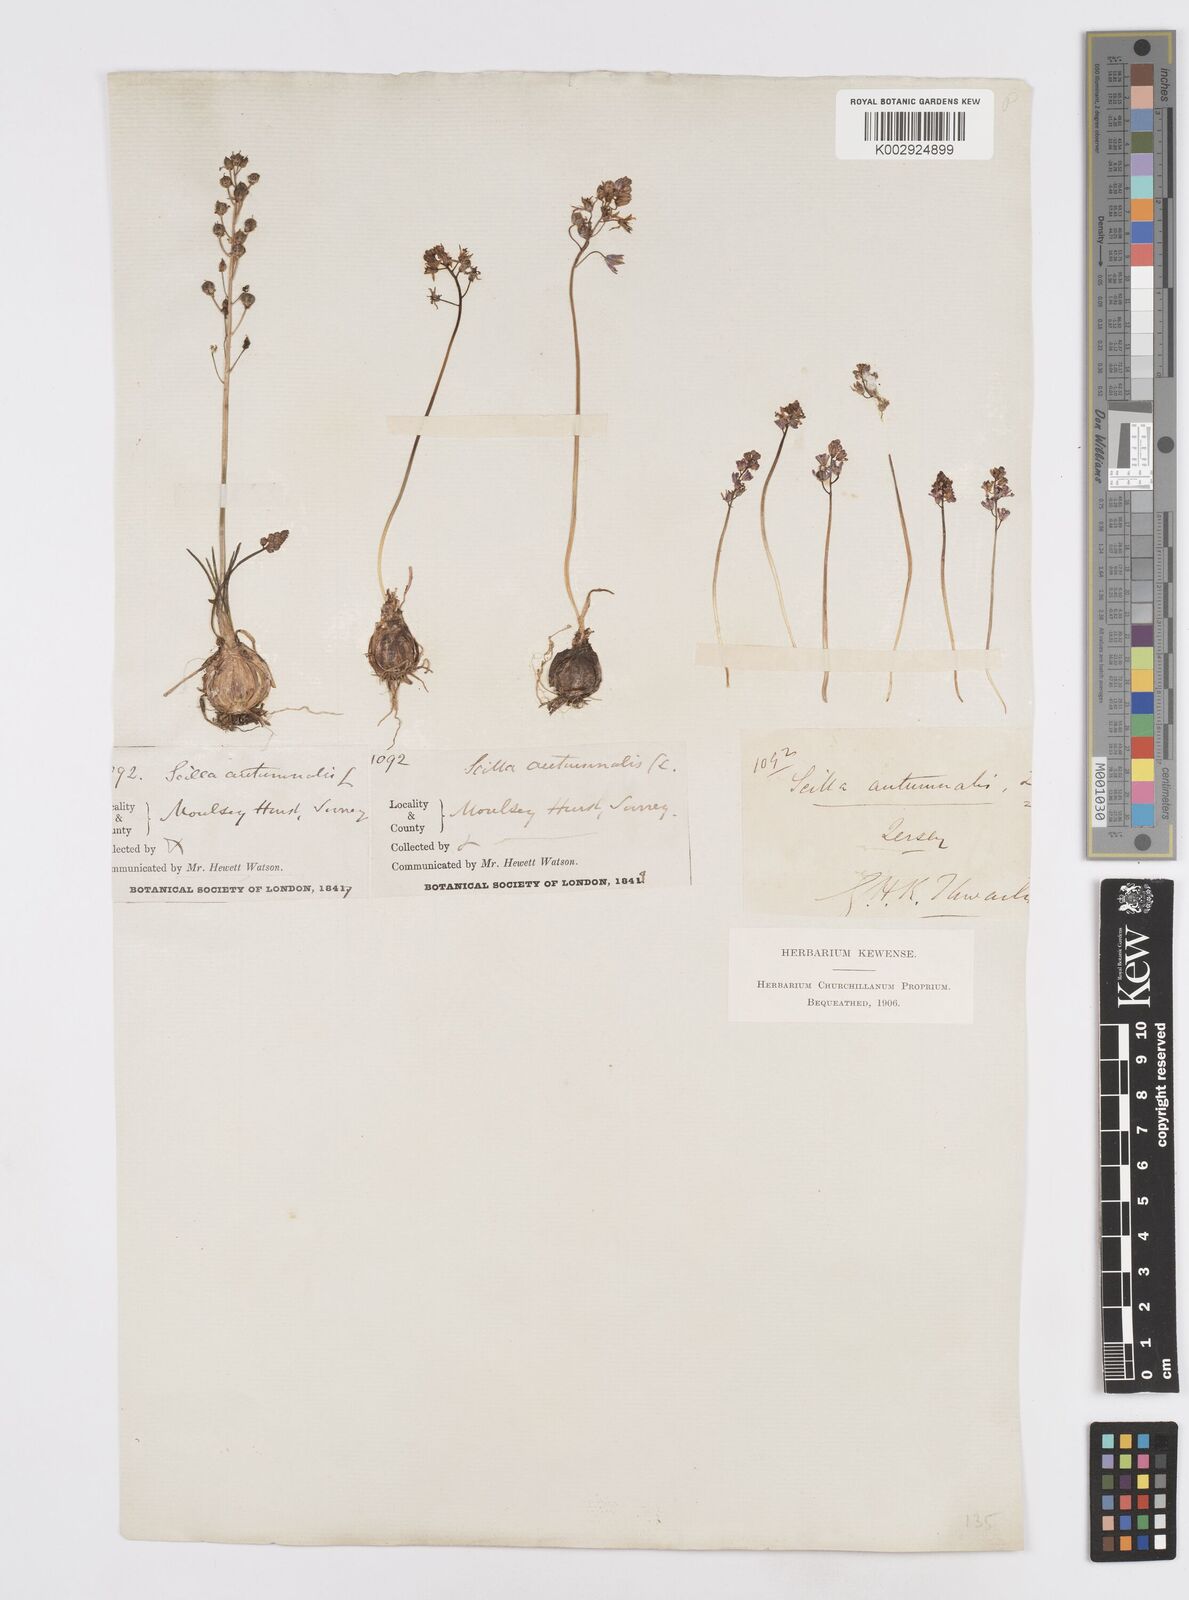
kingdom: Plantae
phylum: Tracheophyta
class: Liliopsida
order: Asparagales
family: Asparagaceae
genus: Prospero
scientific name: Prospero autumnale
